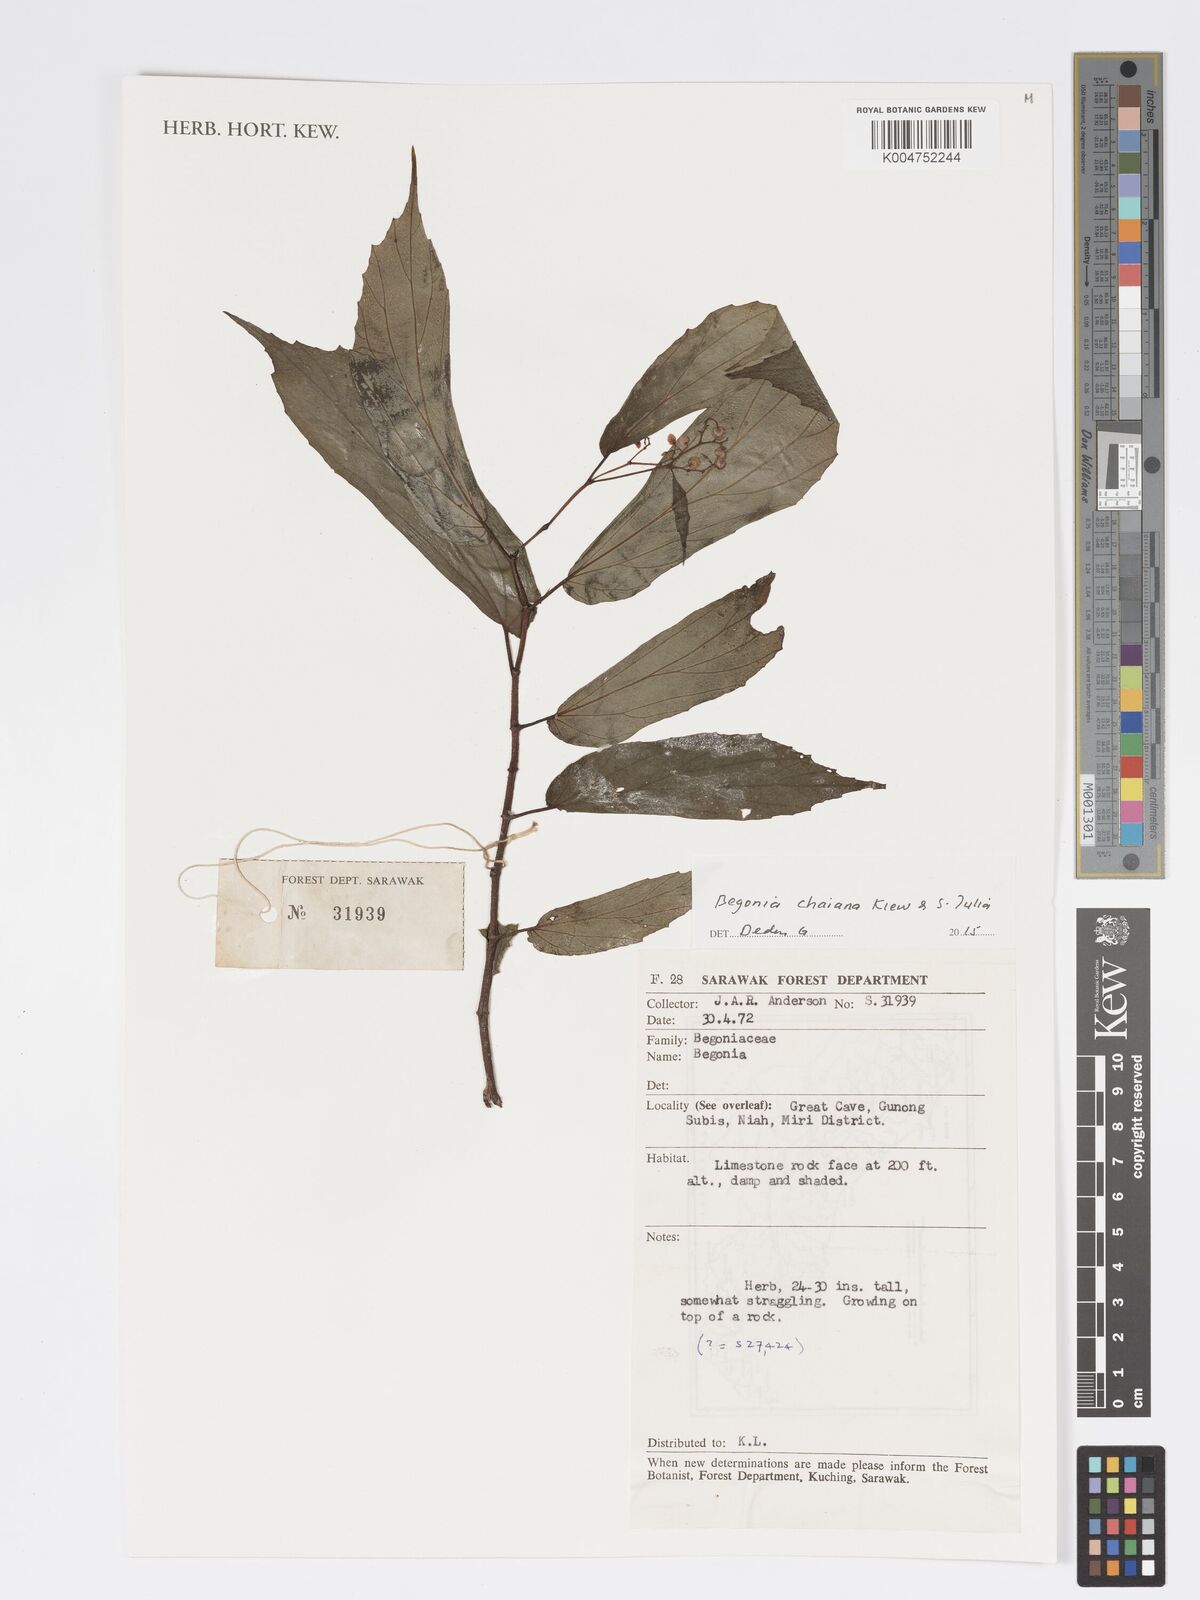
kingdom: Plantae
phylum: Tracheophyta
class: Magnoliopsida
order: Cucurbitales
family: Begoniaceae
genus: Begonia
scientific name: Begonia chaiana
